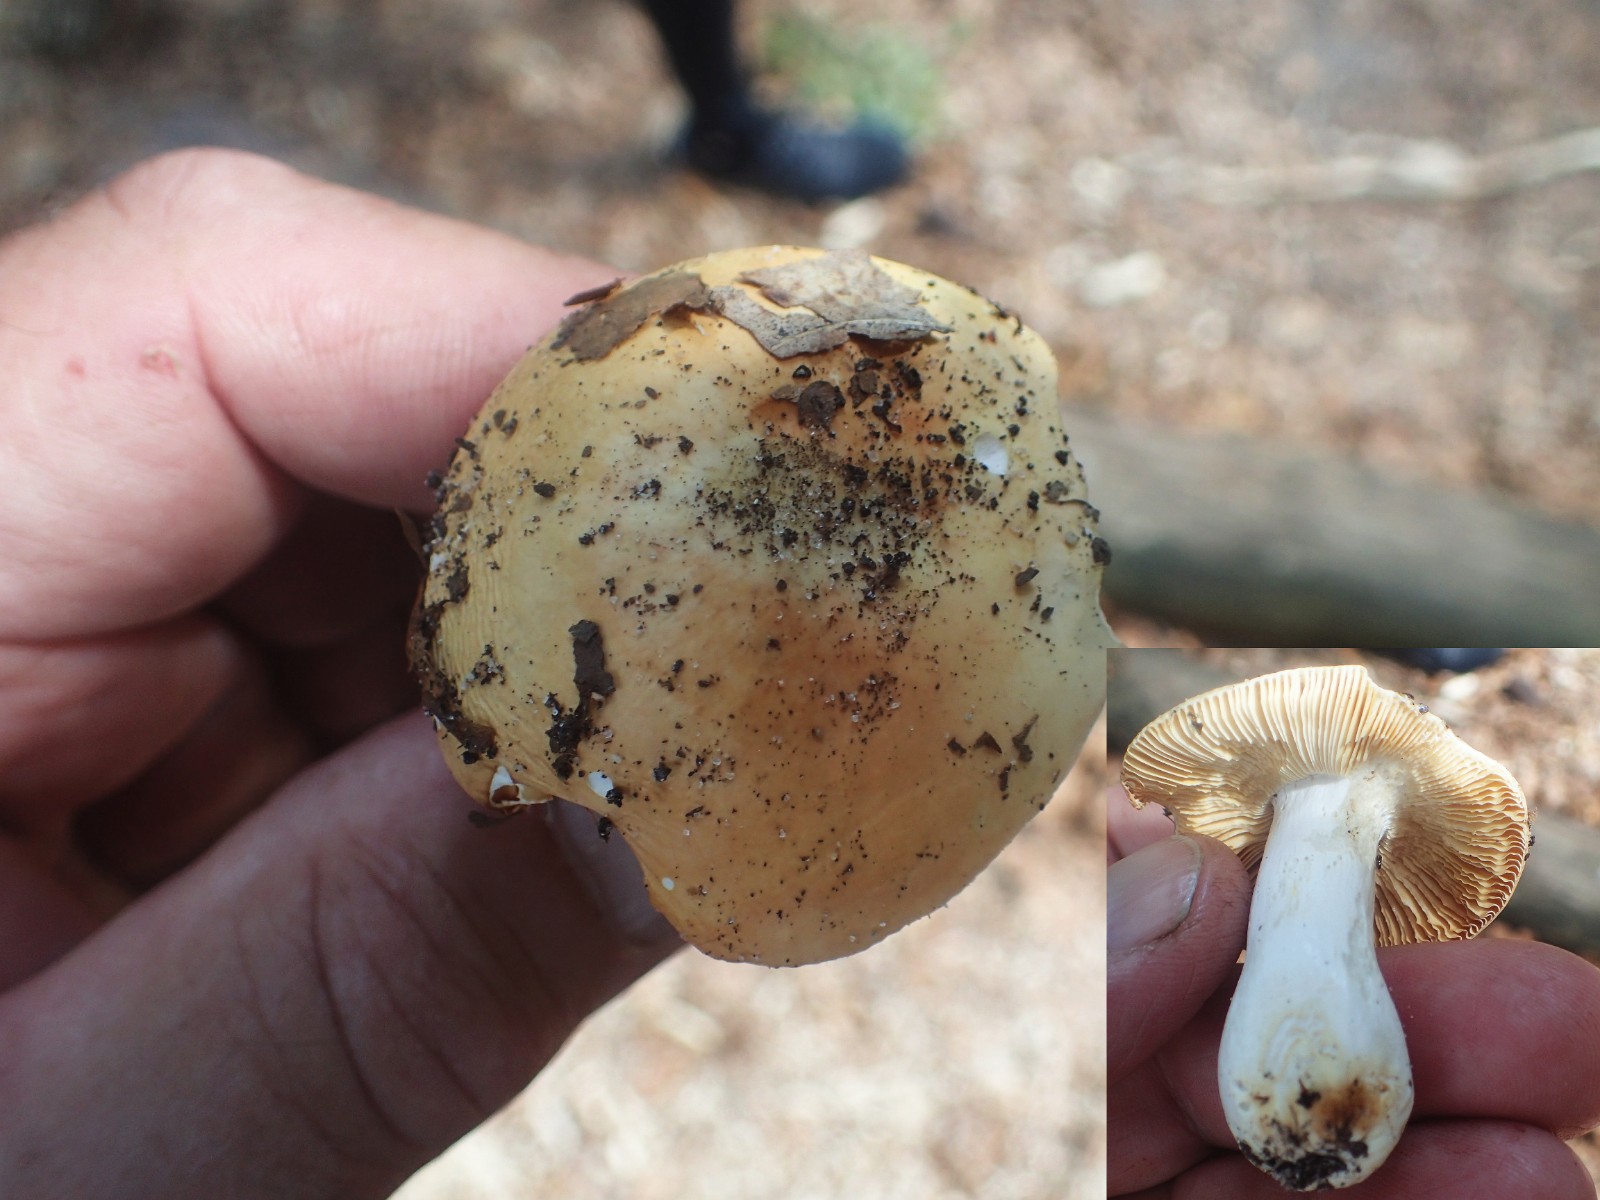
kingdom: Fungi
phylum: Basidiomycota
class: Agaricomycetes
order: Russulales
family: Russulaceae
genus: Russula
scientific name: Russula risigallina
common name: abrikos-skørhat
